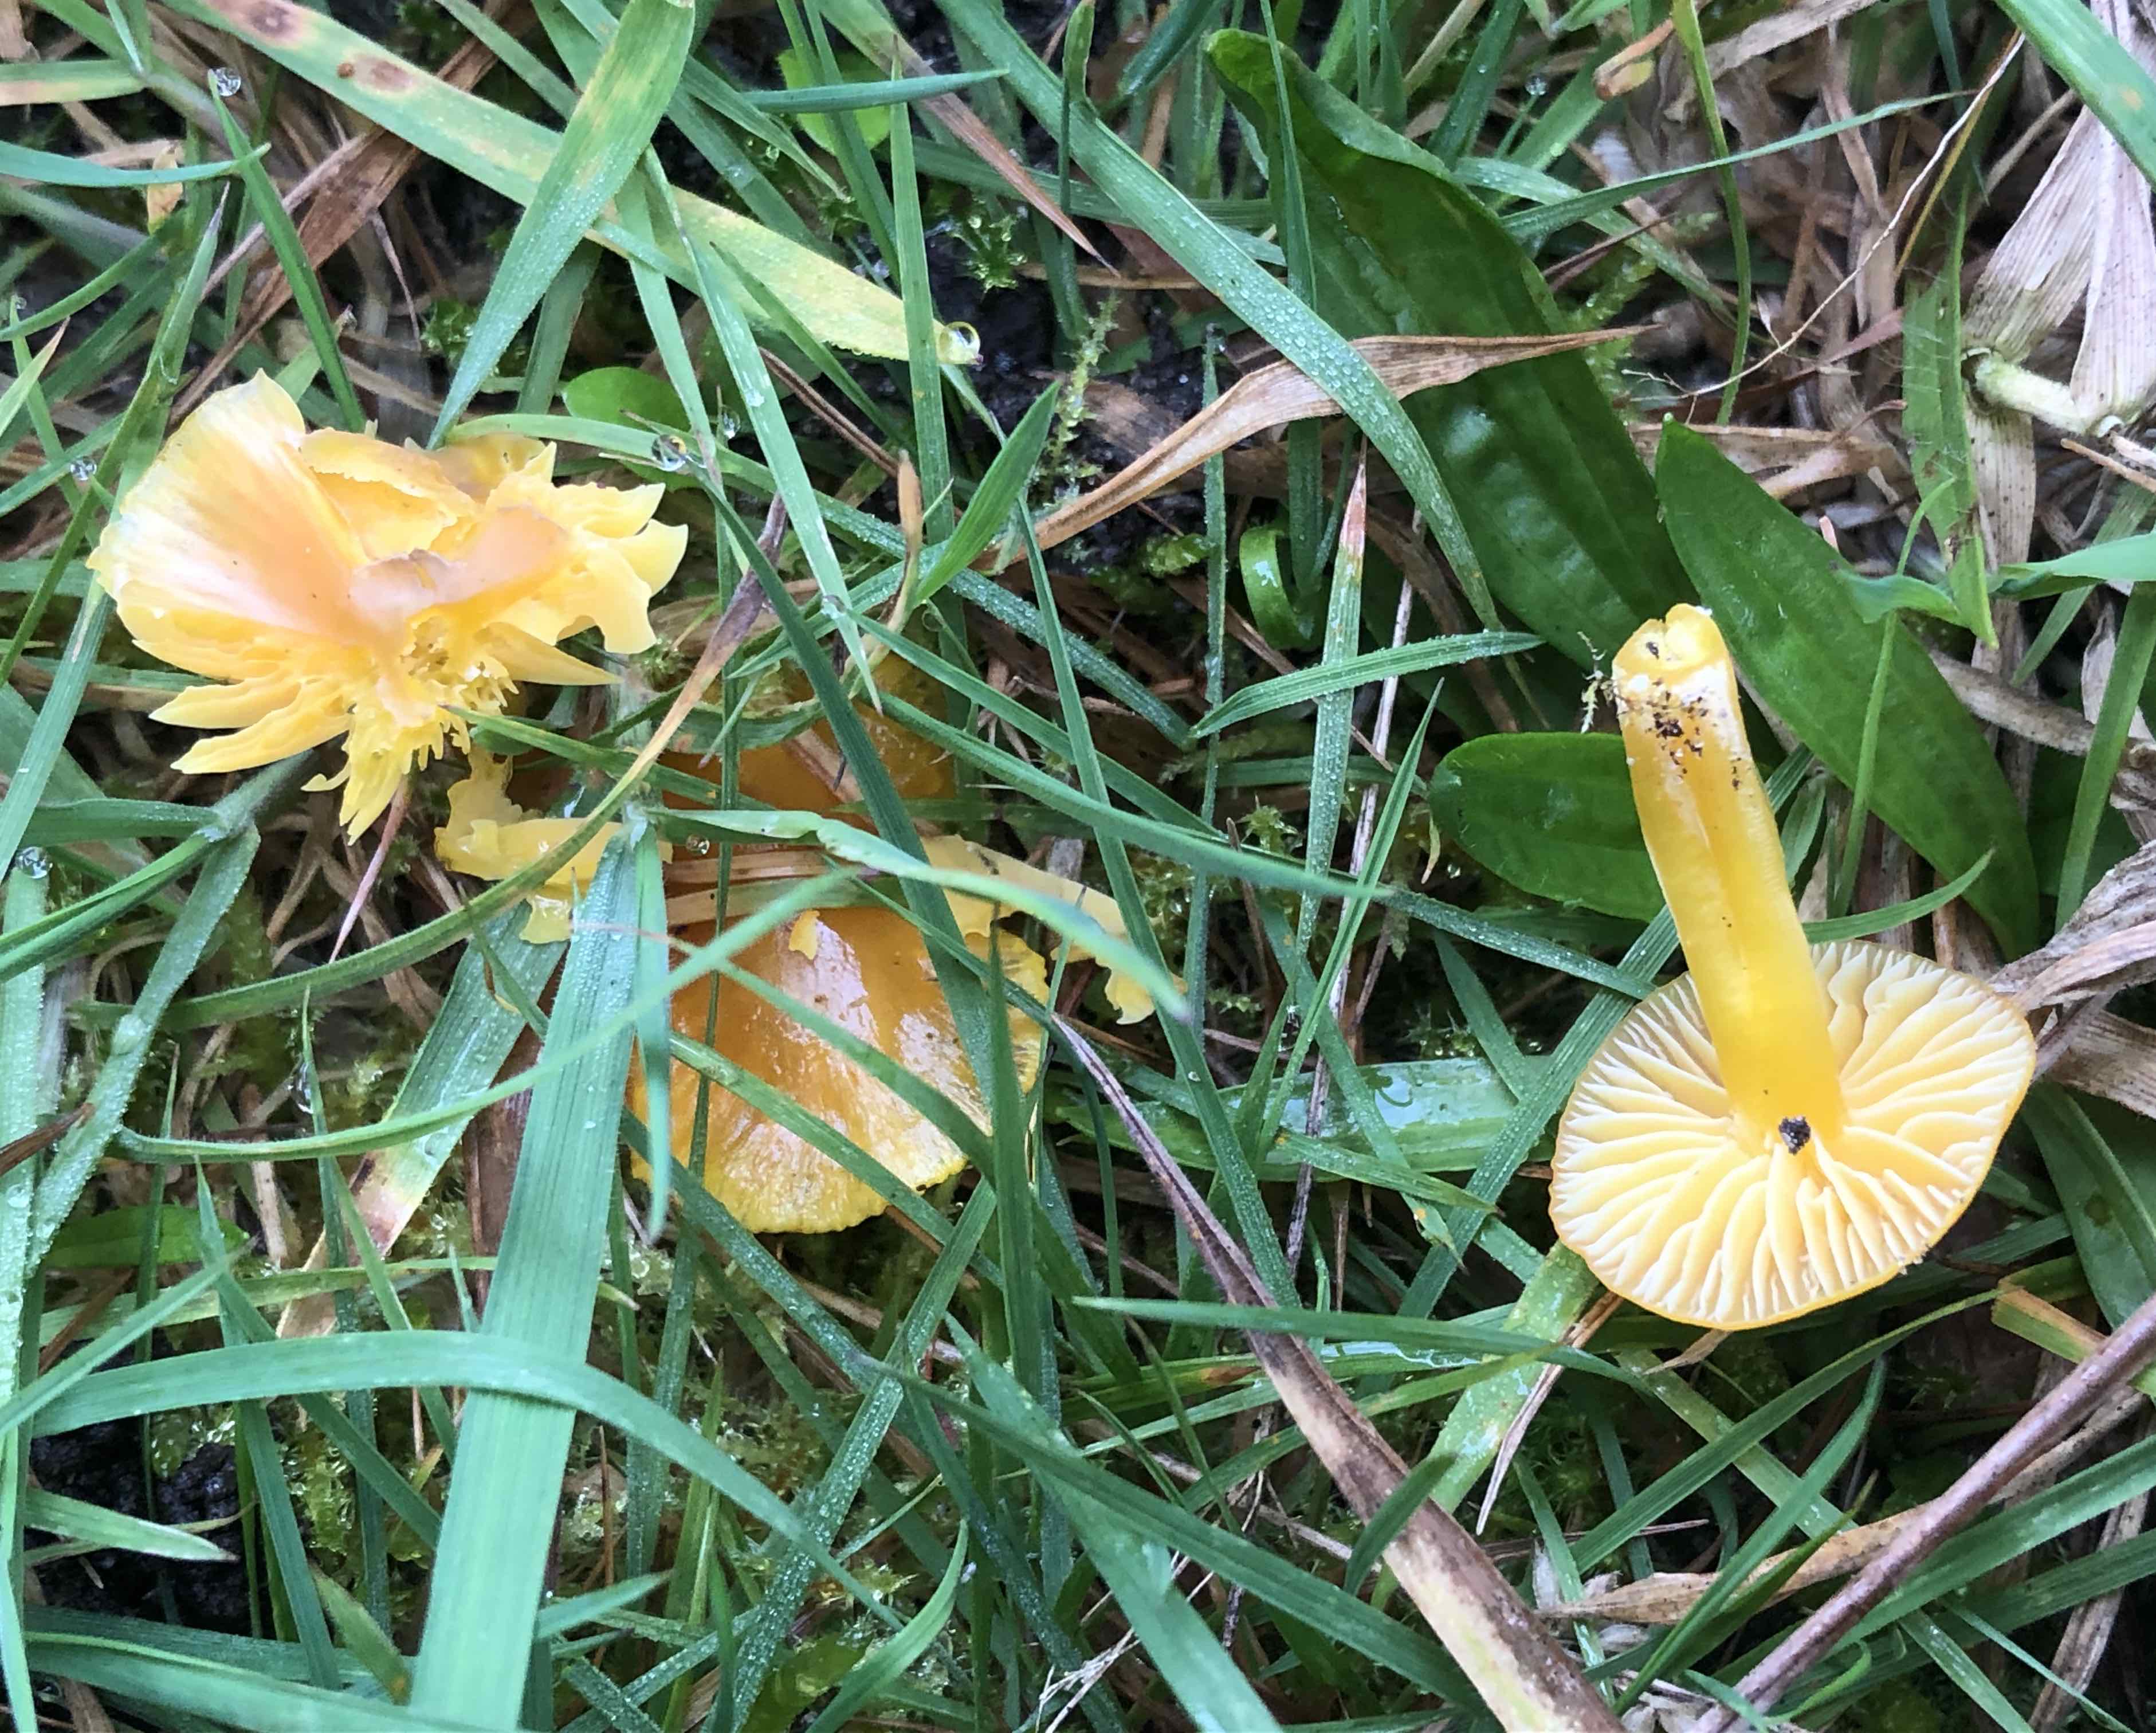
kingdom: Fungi
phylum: Basidiomycota
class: Agaricomycetes
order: Agaricales
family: Hygrophoraceae
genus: Hygrocybe
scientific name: Hygrocybe ceracea
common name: voksgul vokshat
